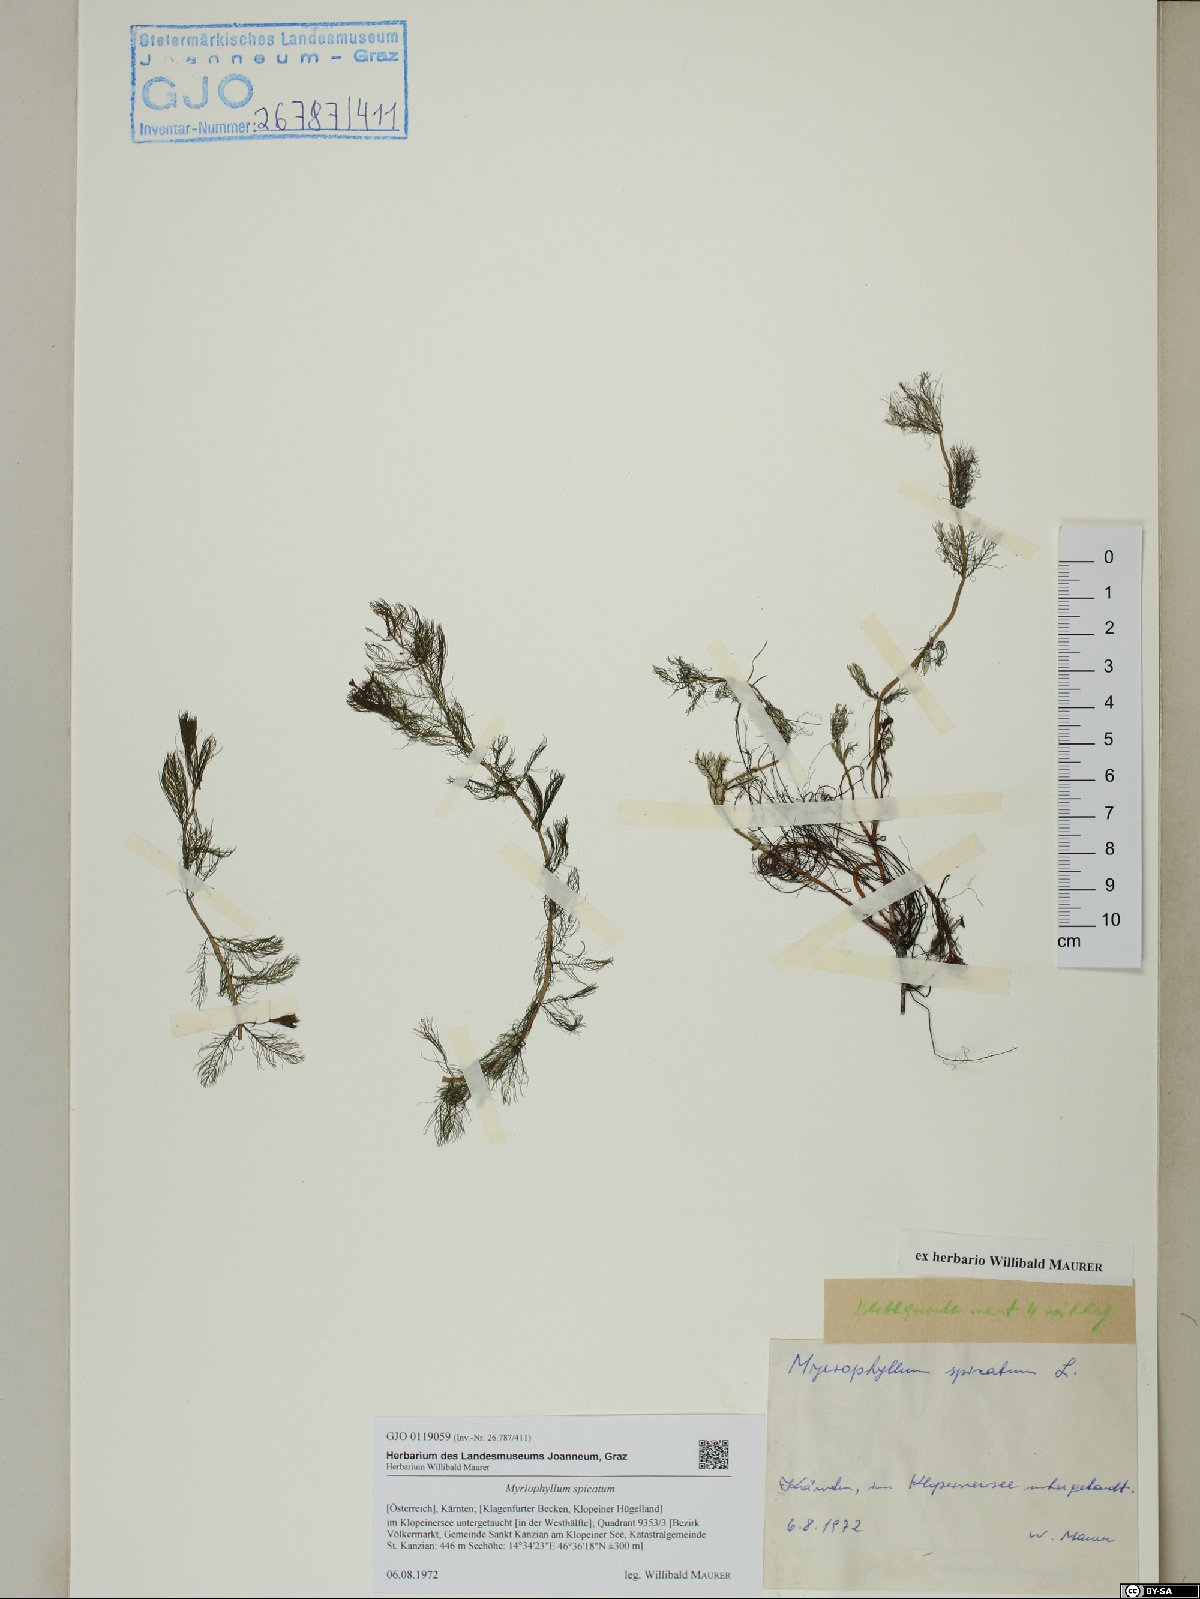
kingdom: Plantae
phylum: Tracheophyta
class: Magnoliopsida
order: Saxifragales
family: Haloragaceae
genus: Myriophyllum
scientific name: Myriophyllum spicatum
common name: Spiked water-milfoil
